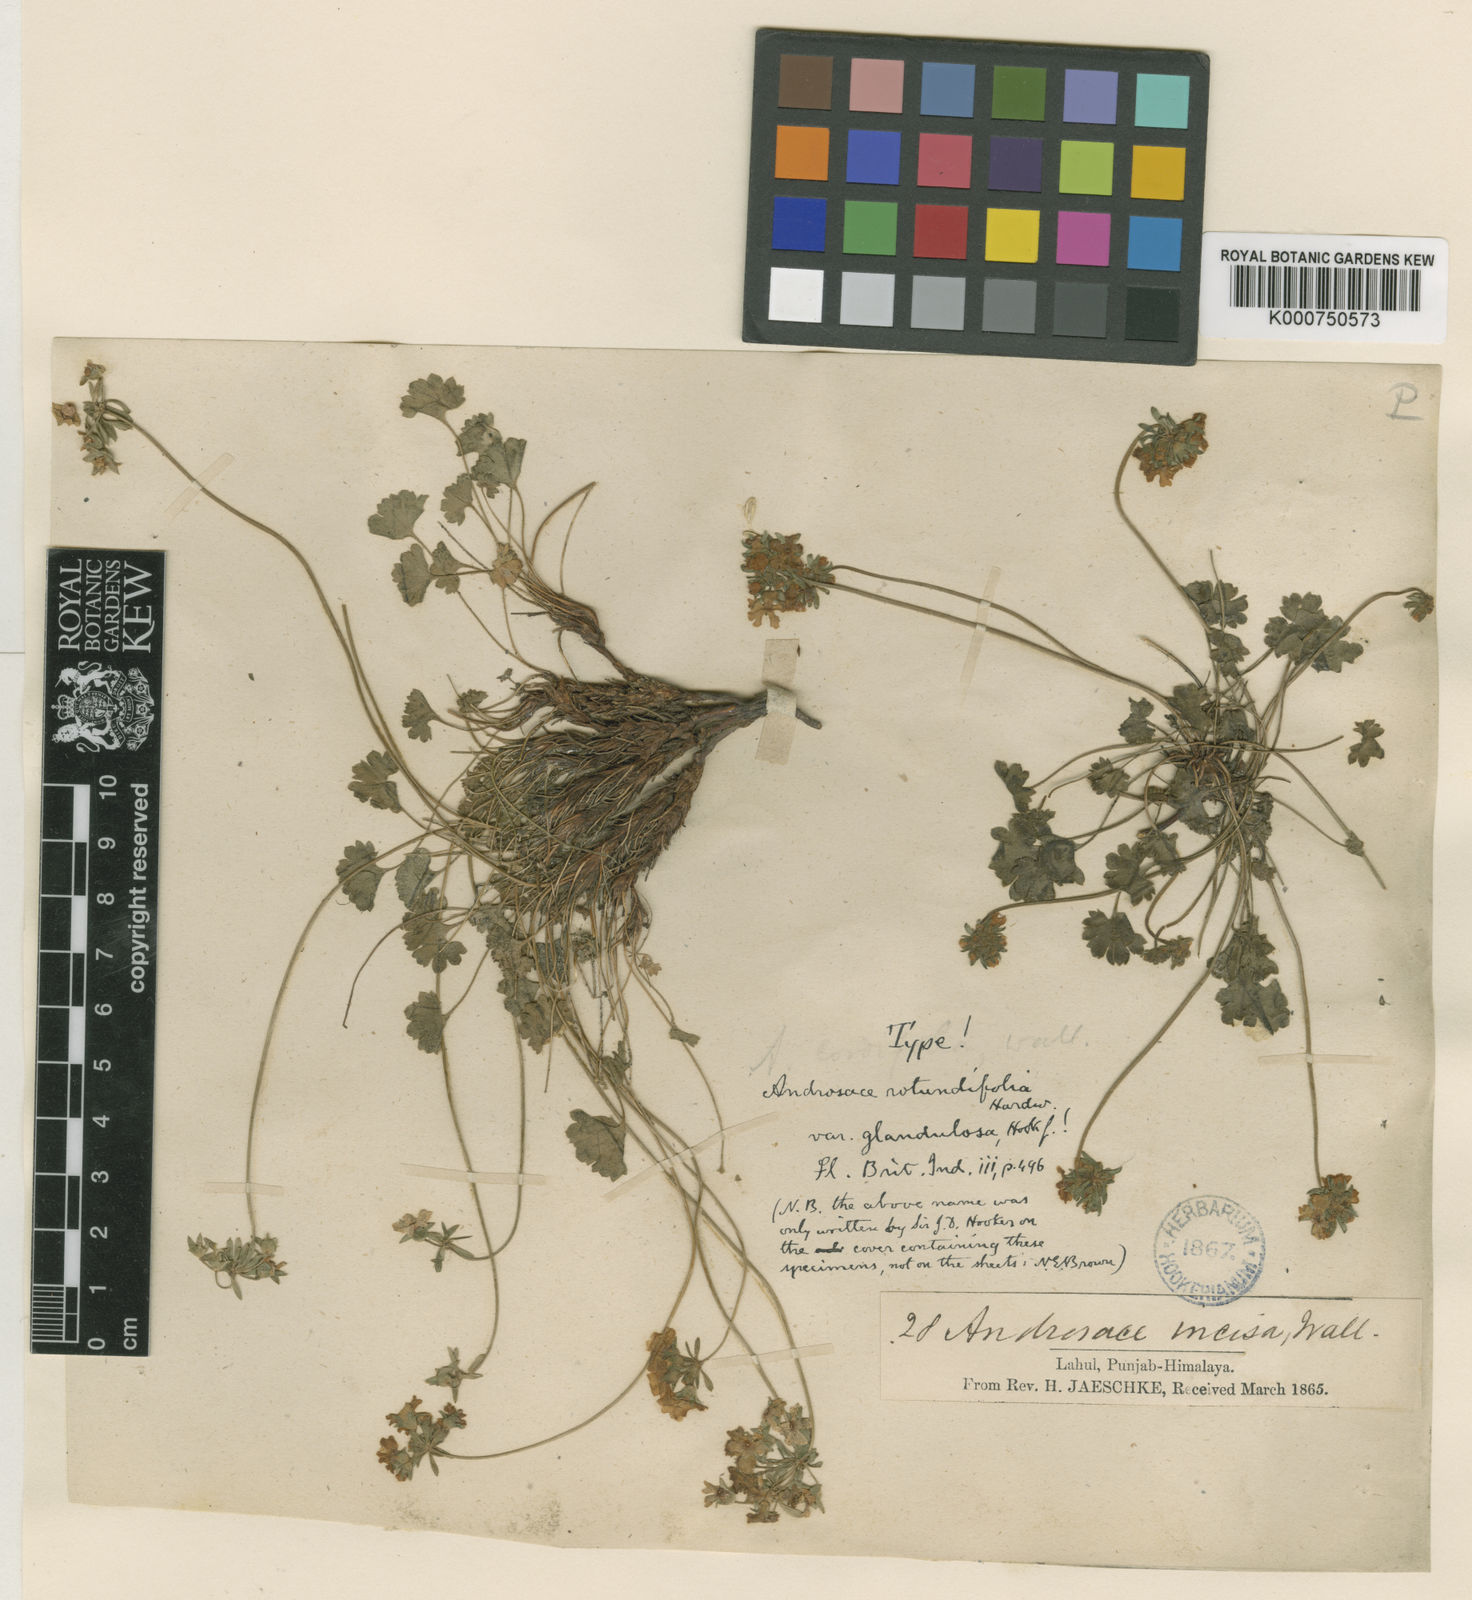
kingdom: Plantae
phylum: Tracheophyta
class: Magnoliopsida
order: Ericales
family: Primulaceae
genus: Androsace
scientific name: Androsace rotundifolia
